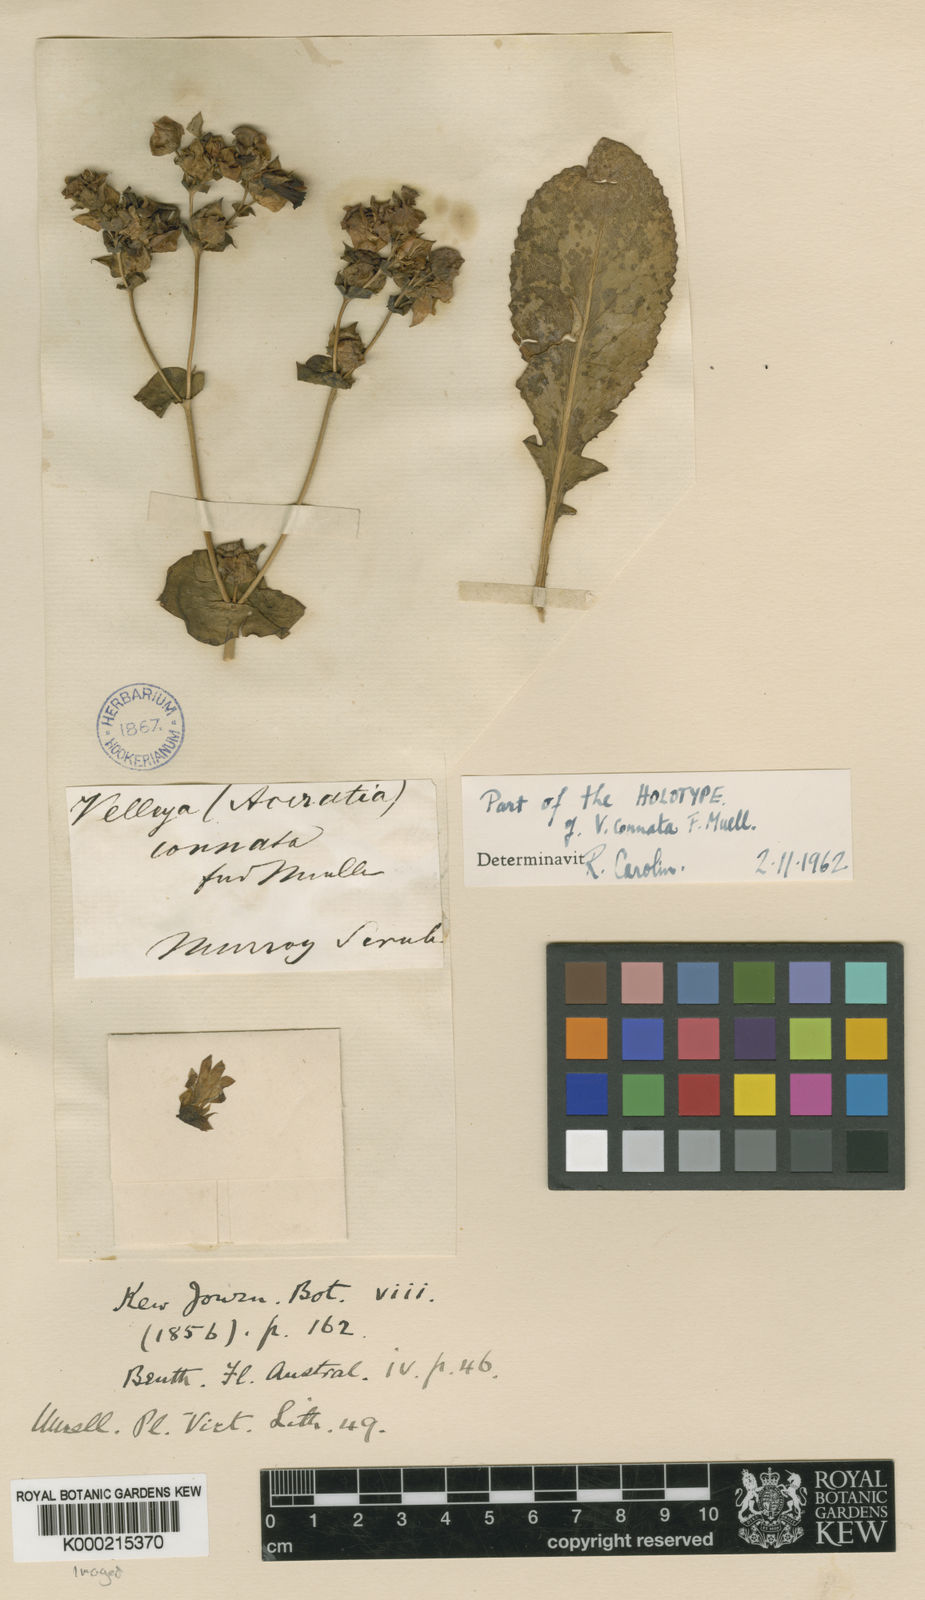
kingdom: Plantae
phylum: Tracheophyta
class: Magnoliopsida
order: Asterales
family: Goodeniaceae
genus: Goodenia
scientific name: Goodenia connata
